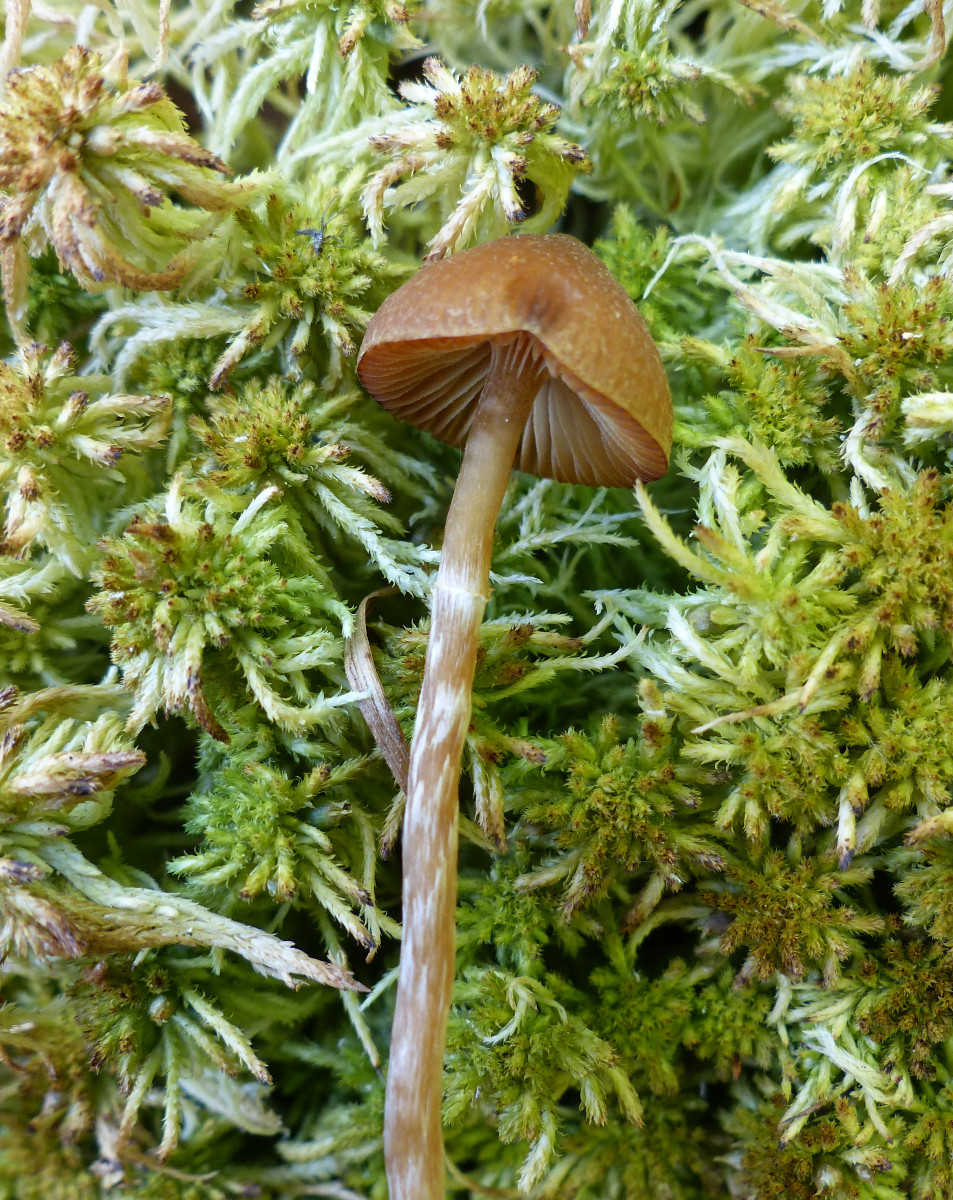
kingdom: Fungi
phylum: Basidiomycota
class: Agaricomycetes
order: Agaricales
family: Hymenogastraceae
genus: Galerina
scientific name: Galerina paludosa
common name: mose-hjelmhat
